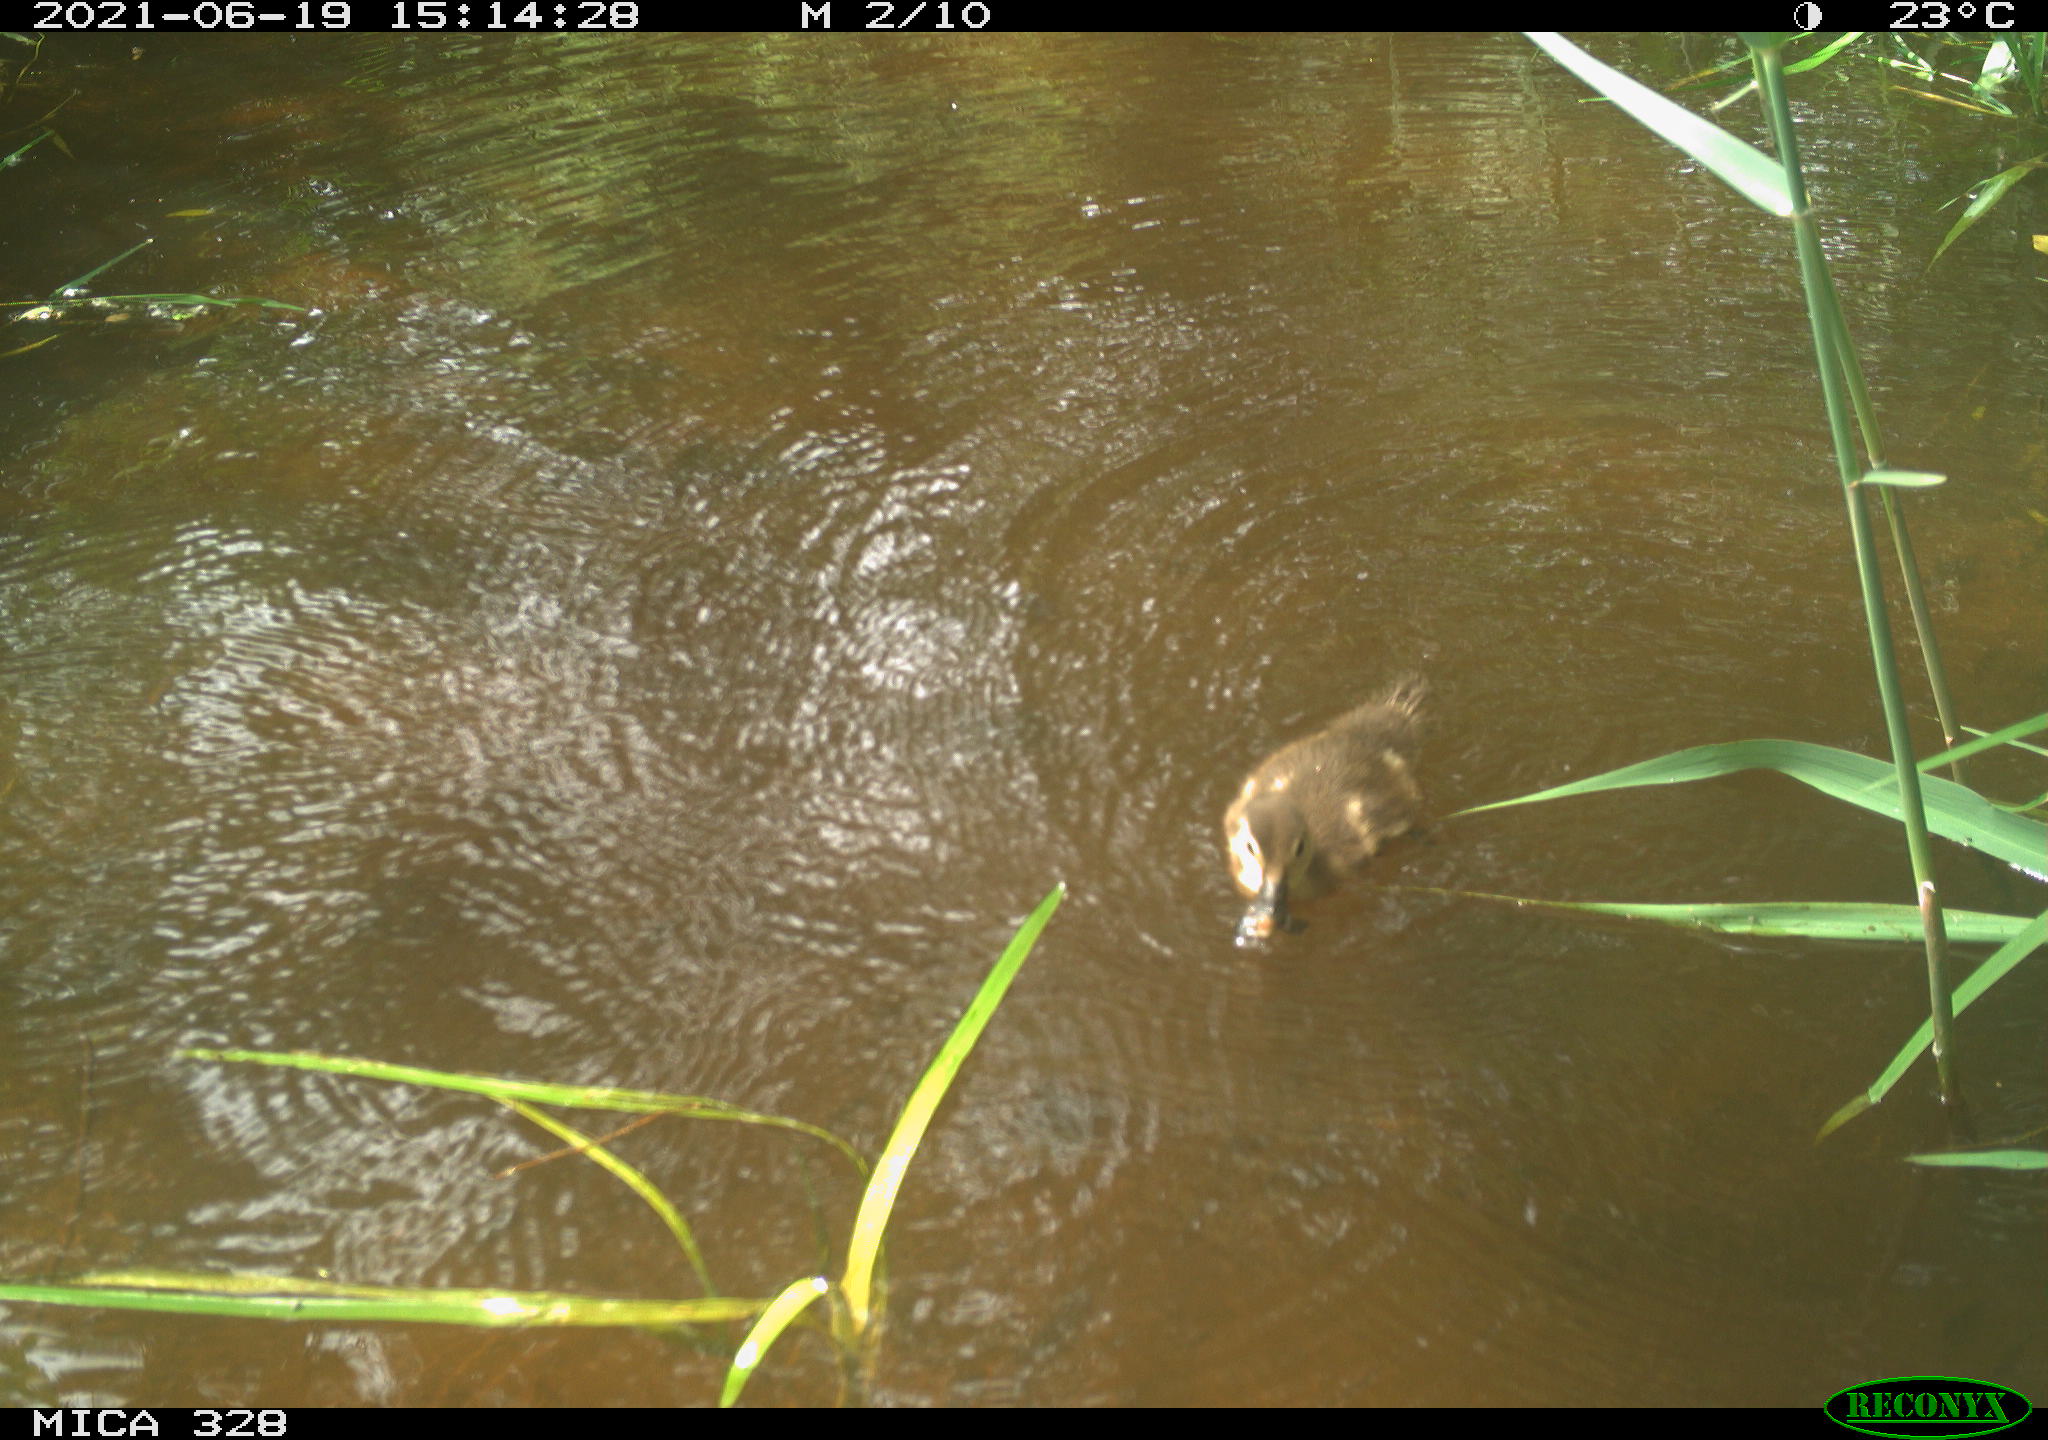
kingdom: Animalia
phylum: Chordata
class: Aves
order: Anseriformes
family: Anatidae
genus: Aix
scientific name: Aix galericulata
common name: Mandarin duck
